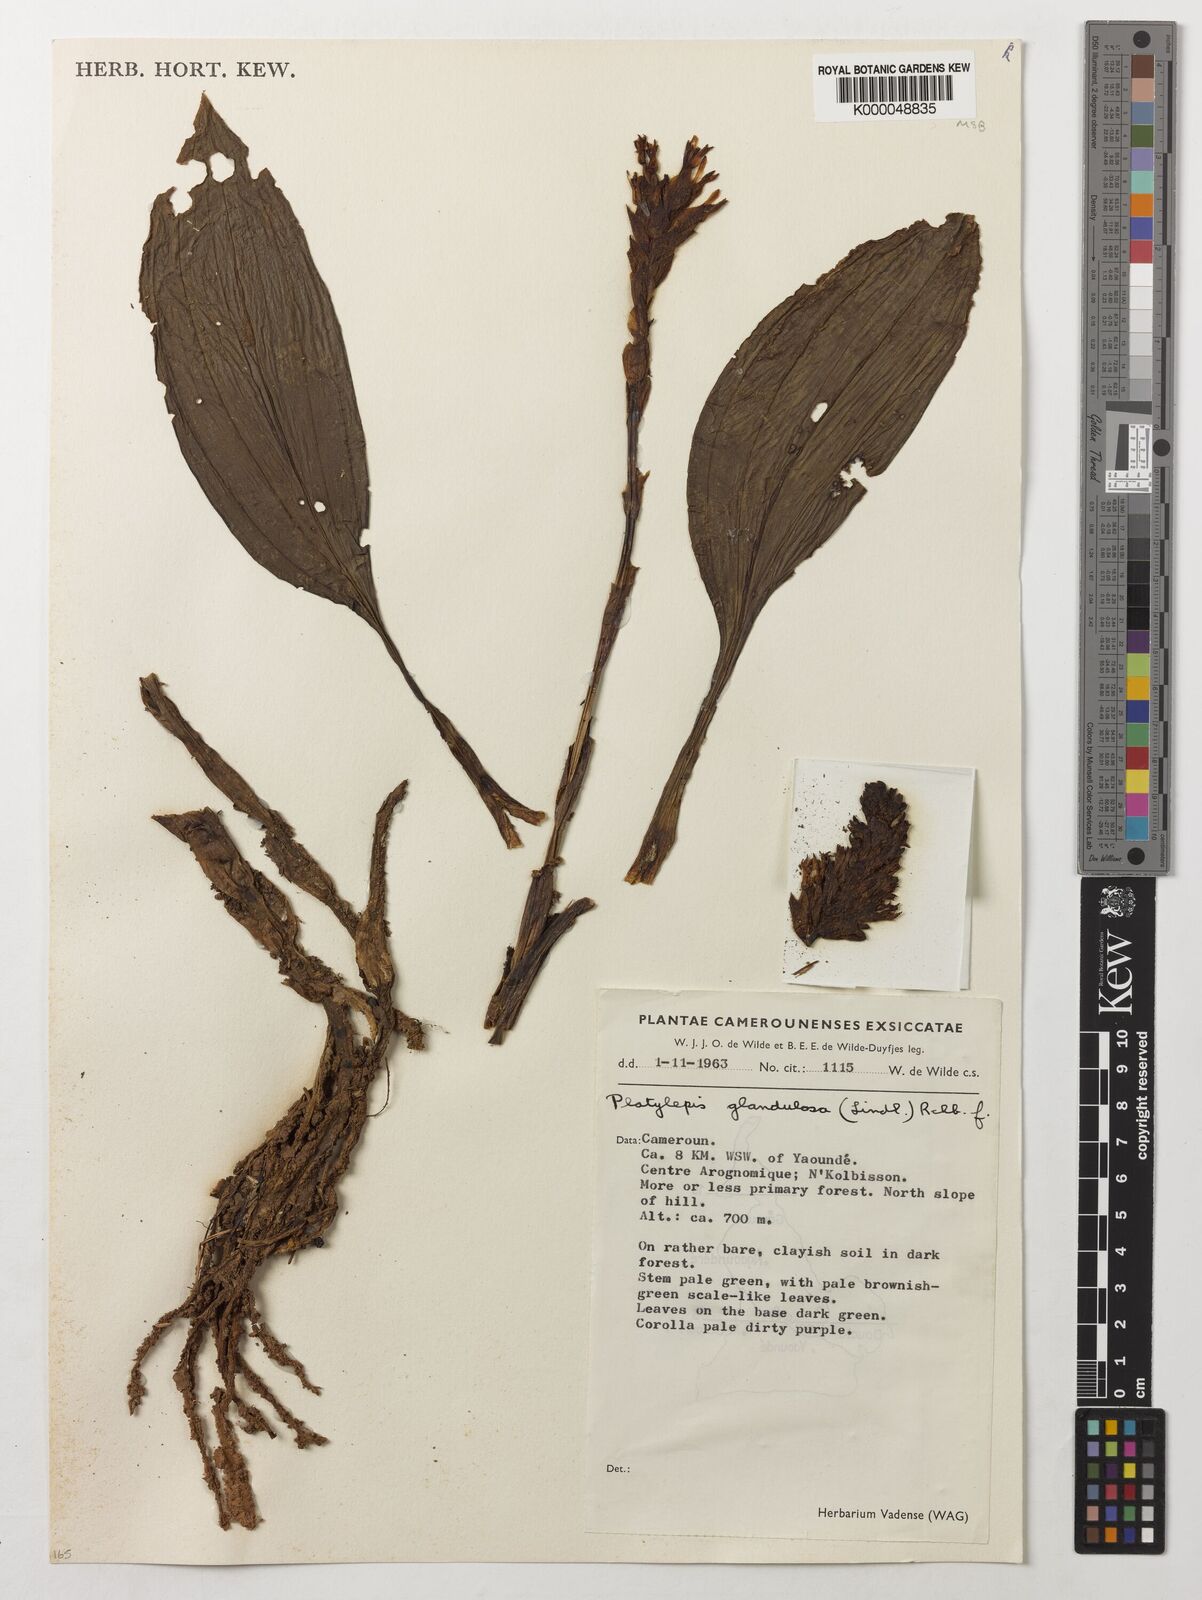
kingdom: Plantae
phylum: Tracheophyta
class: Liliopsida
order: Asparagales
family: Orchidaceae
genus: Platylepis
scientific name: Platylepis glandulosa
